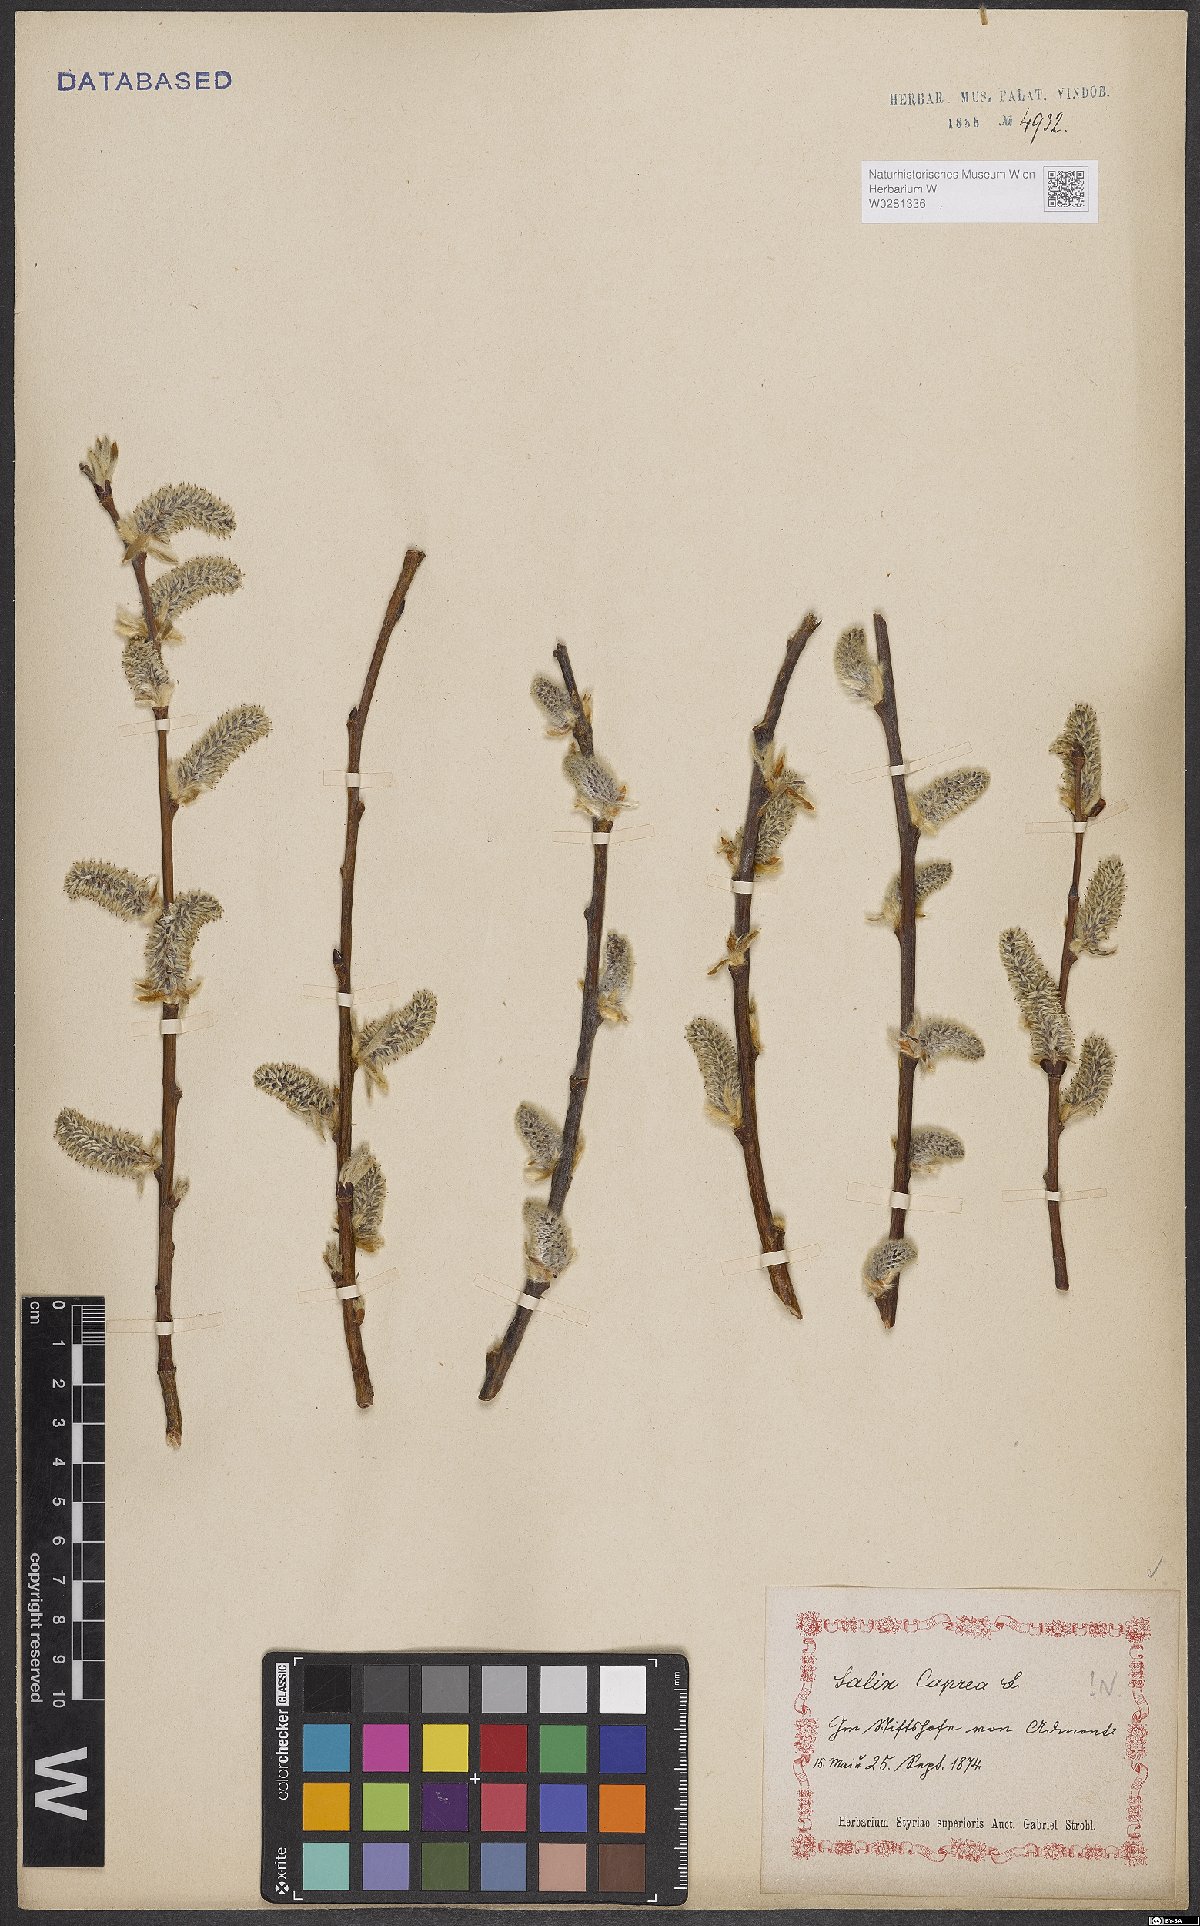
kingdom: Plantae
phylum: Tracheophyta
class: Magnoliopsida
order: Malpighiales
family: Salicaceae
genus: Salix
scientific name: Salix caprea
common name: Goat willow
